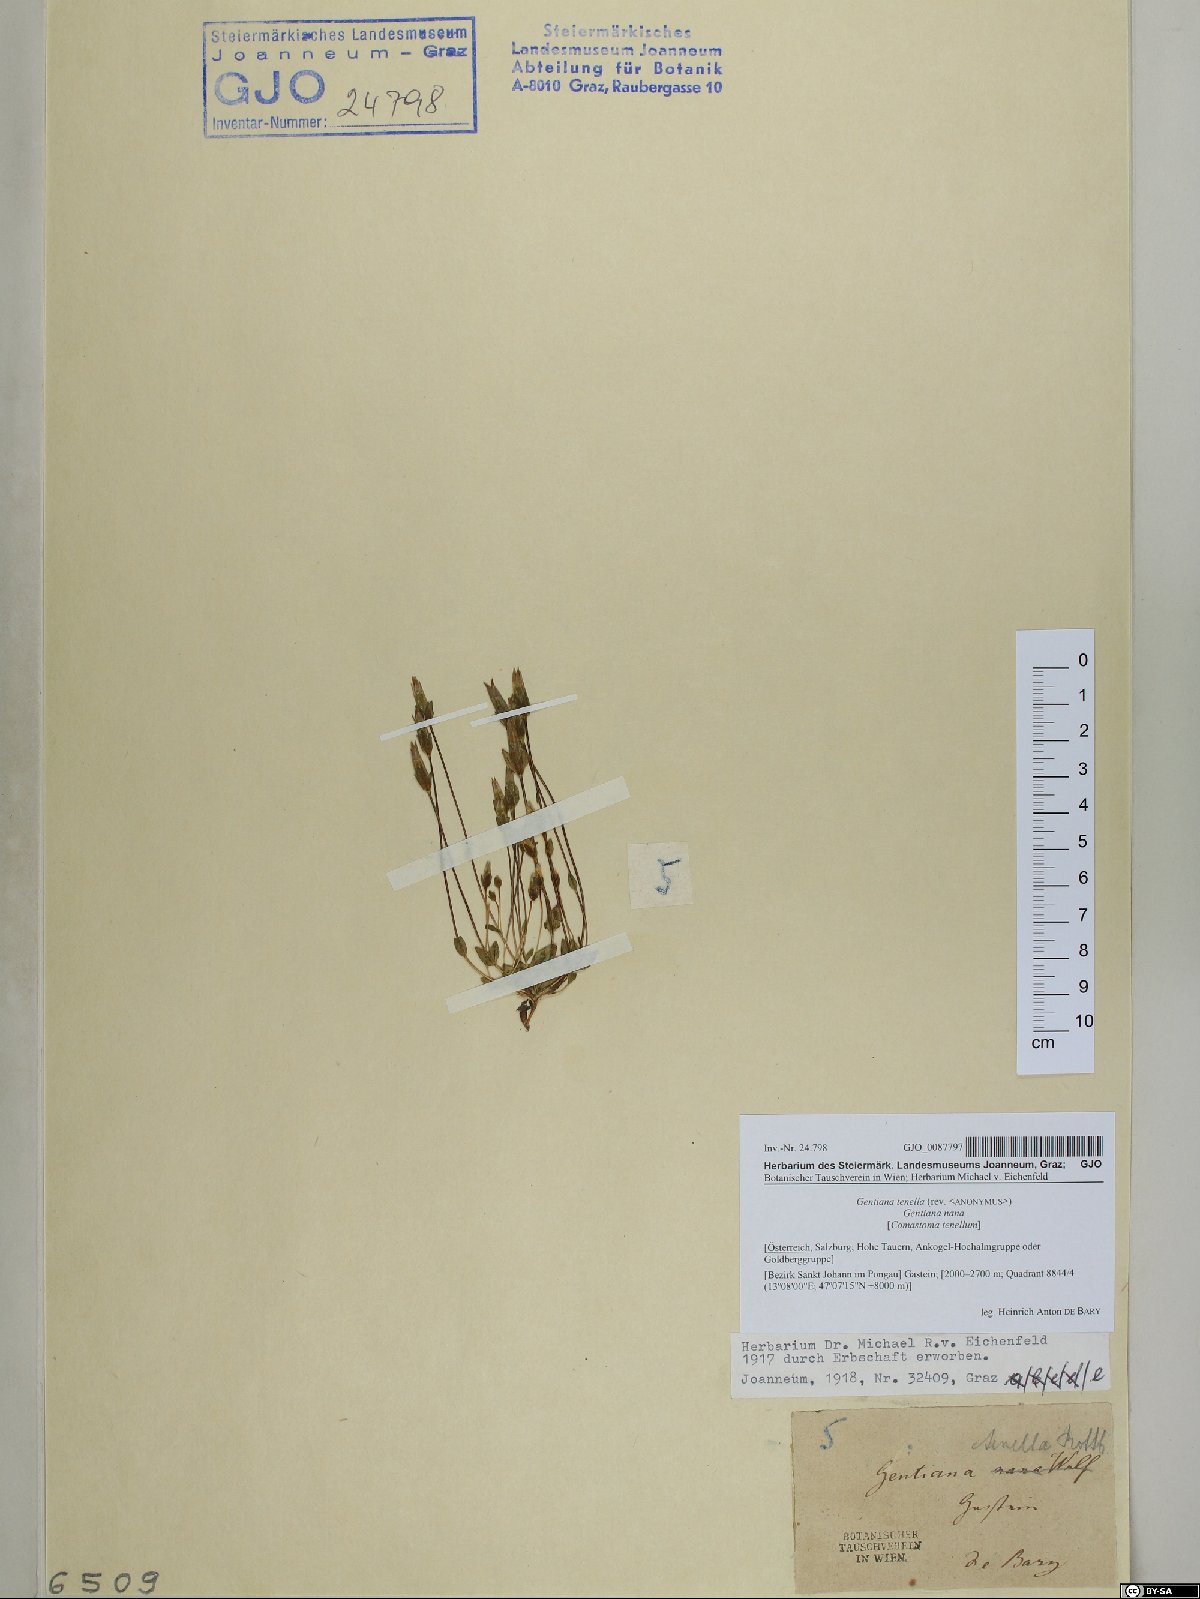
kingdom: Plantae
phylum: Tracheophyta
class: Magnoliopsida
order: Gentianales
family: Gentianaceae
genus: Comastoma
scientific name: Comastoma tenellum
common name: Dane's dwarf gentian
